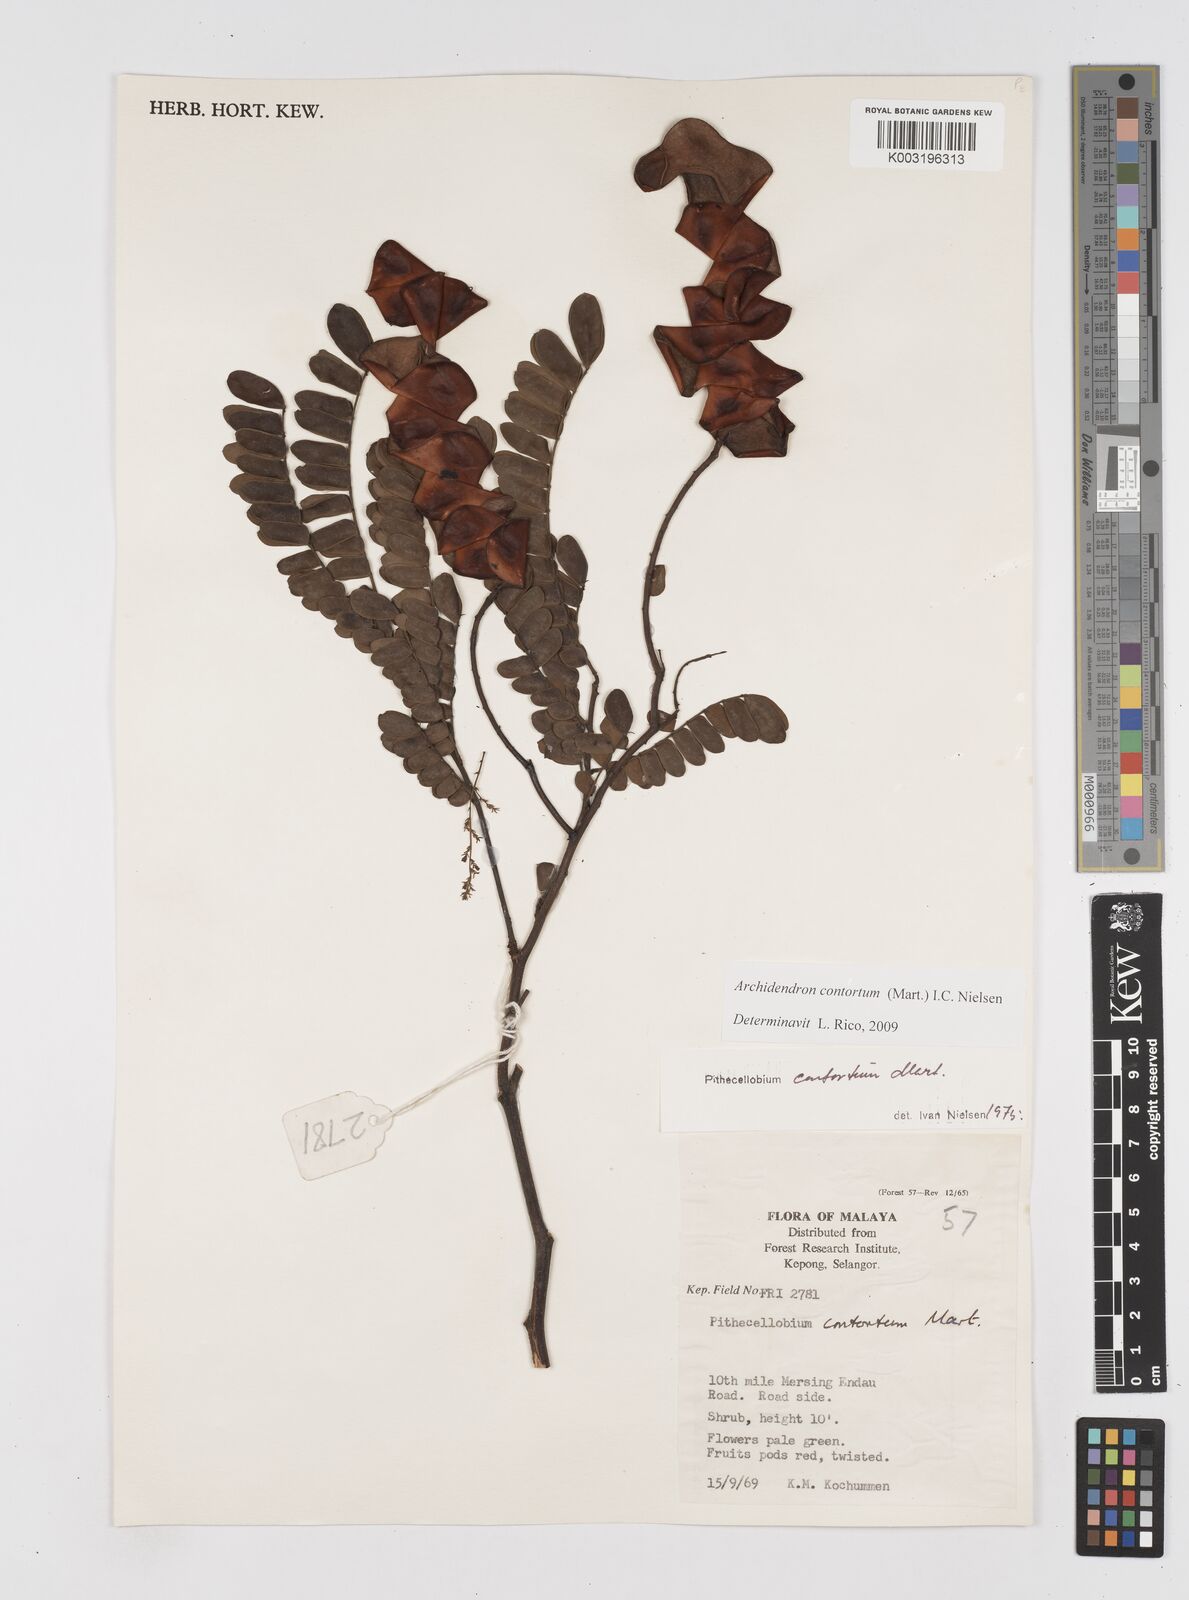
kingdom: Plantae
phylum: Tracheophyta
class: Magnoliopsida
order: Fabales
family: Fabaceae
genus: Archidendron
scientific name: Archidendron contortum
